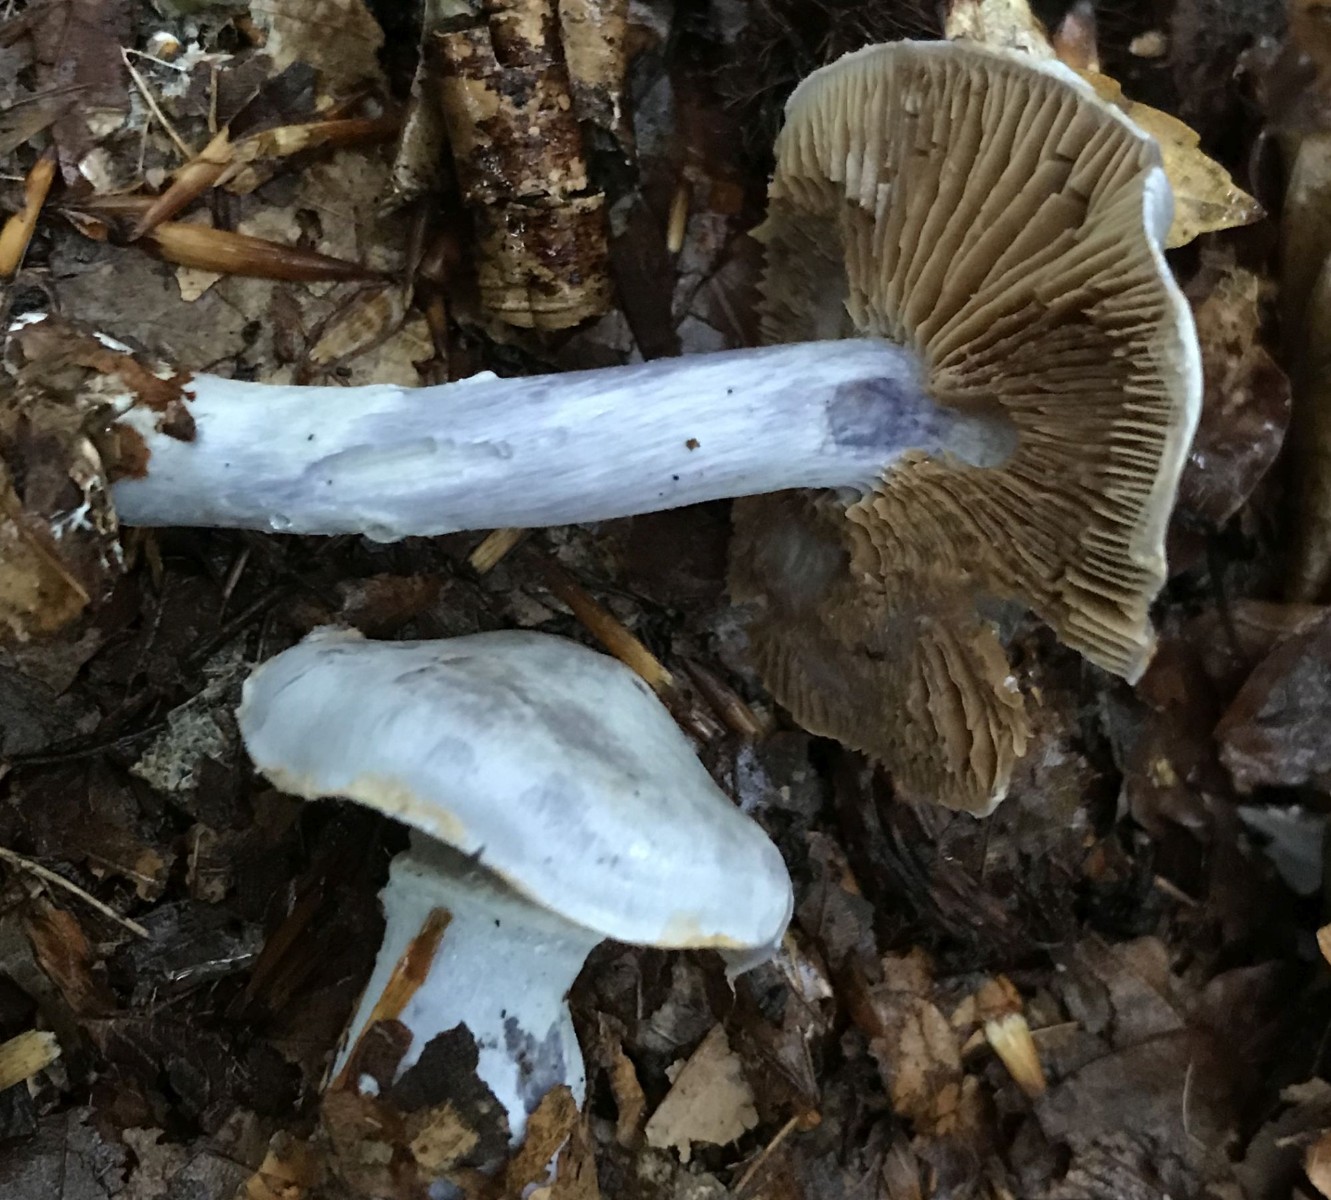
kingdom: Fungi
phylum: Basidiomycota
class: Agaricomycetes
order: Agaricales
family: Cortinariaceae
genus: Cortinarius
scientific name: Cortinarius alboviolaceus
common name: lysviolet slørhat
